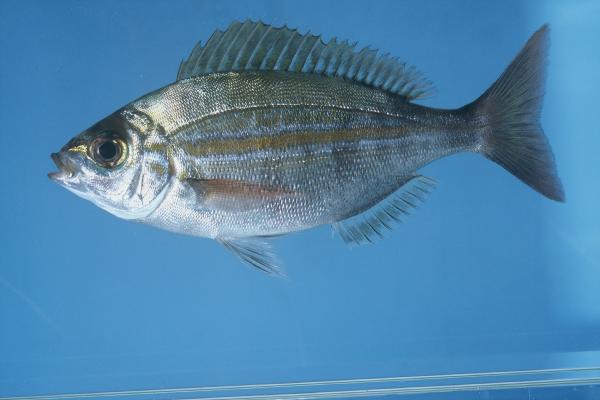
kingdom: Animalia
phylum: Chordata
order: Perciformes
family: Sparidae
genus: Spondyliosoma
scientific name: Spondyliosoma emarginatum
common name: Steentje seabream
